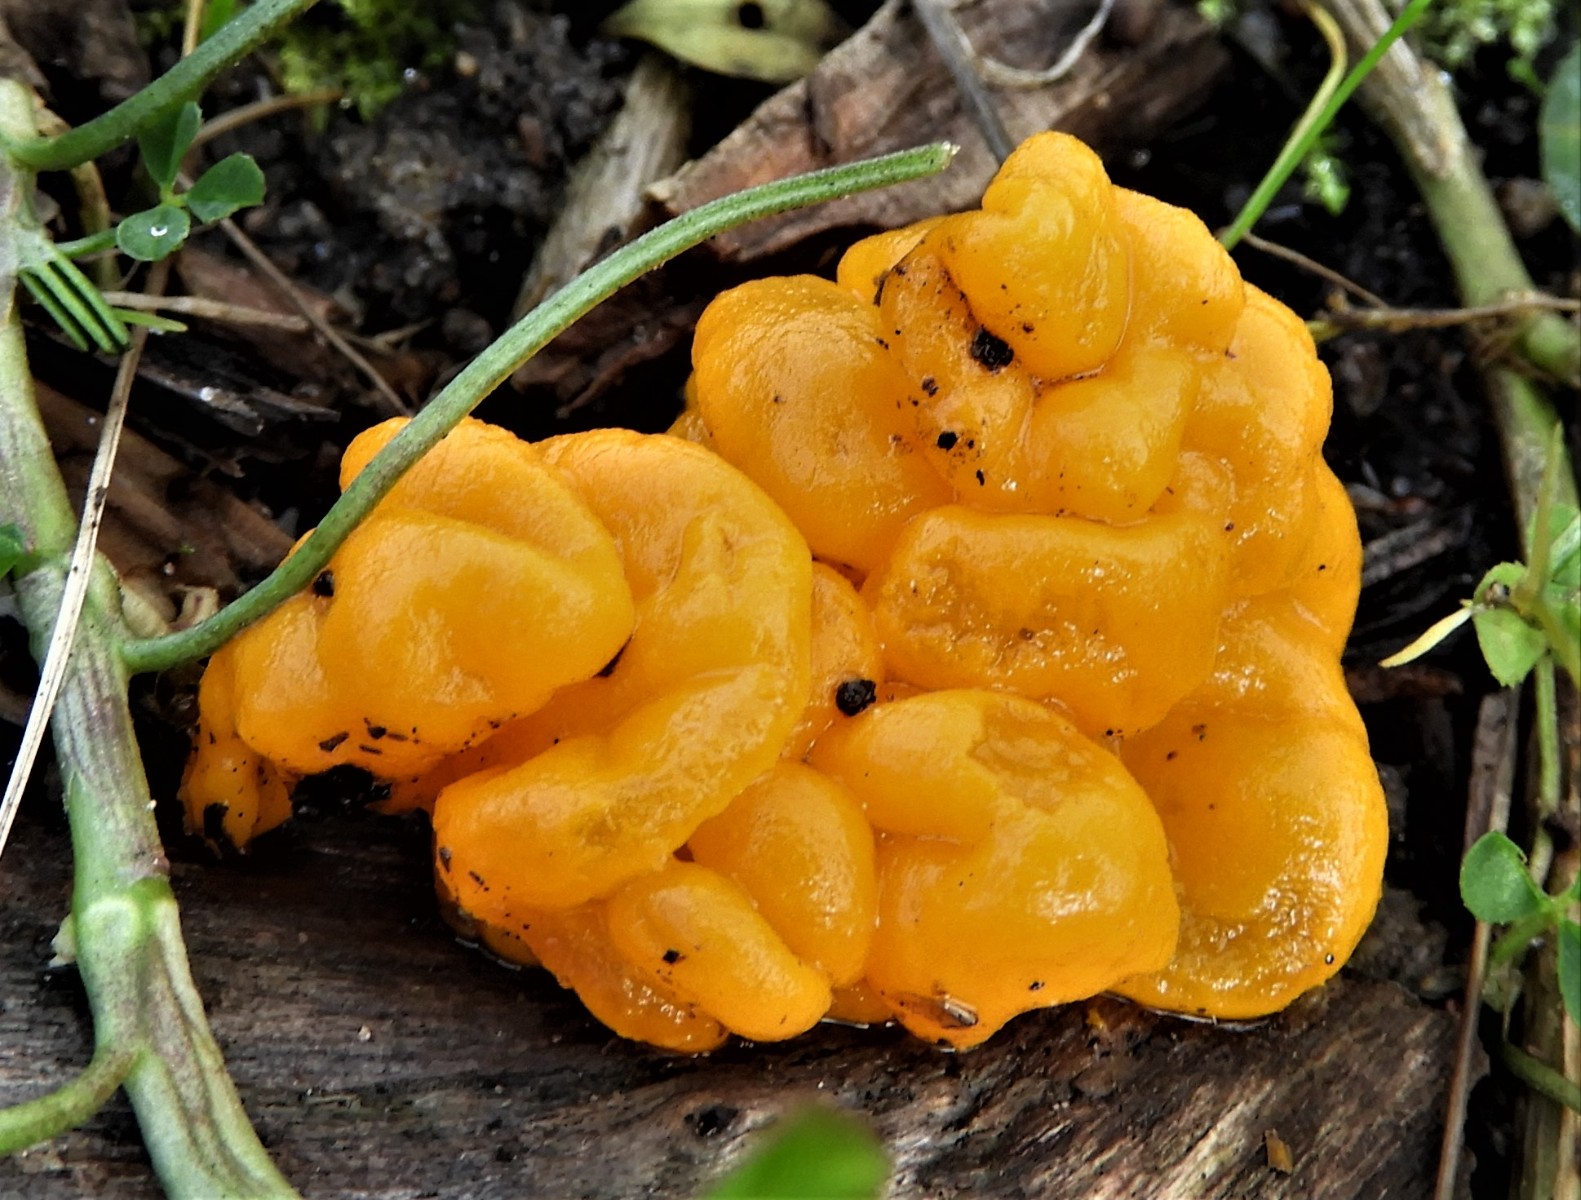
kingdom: Fungi
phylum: Basidiomycota
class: Tremellomycetes
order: Tremellales
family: Tremellaceae
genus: Tremella
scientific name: Tremella mesenterica
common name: gul bævresvamp
